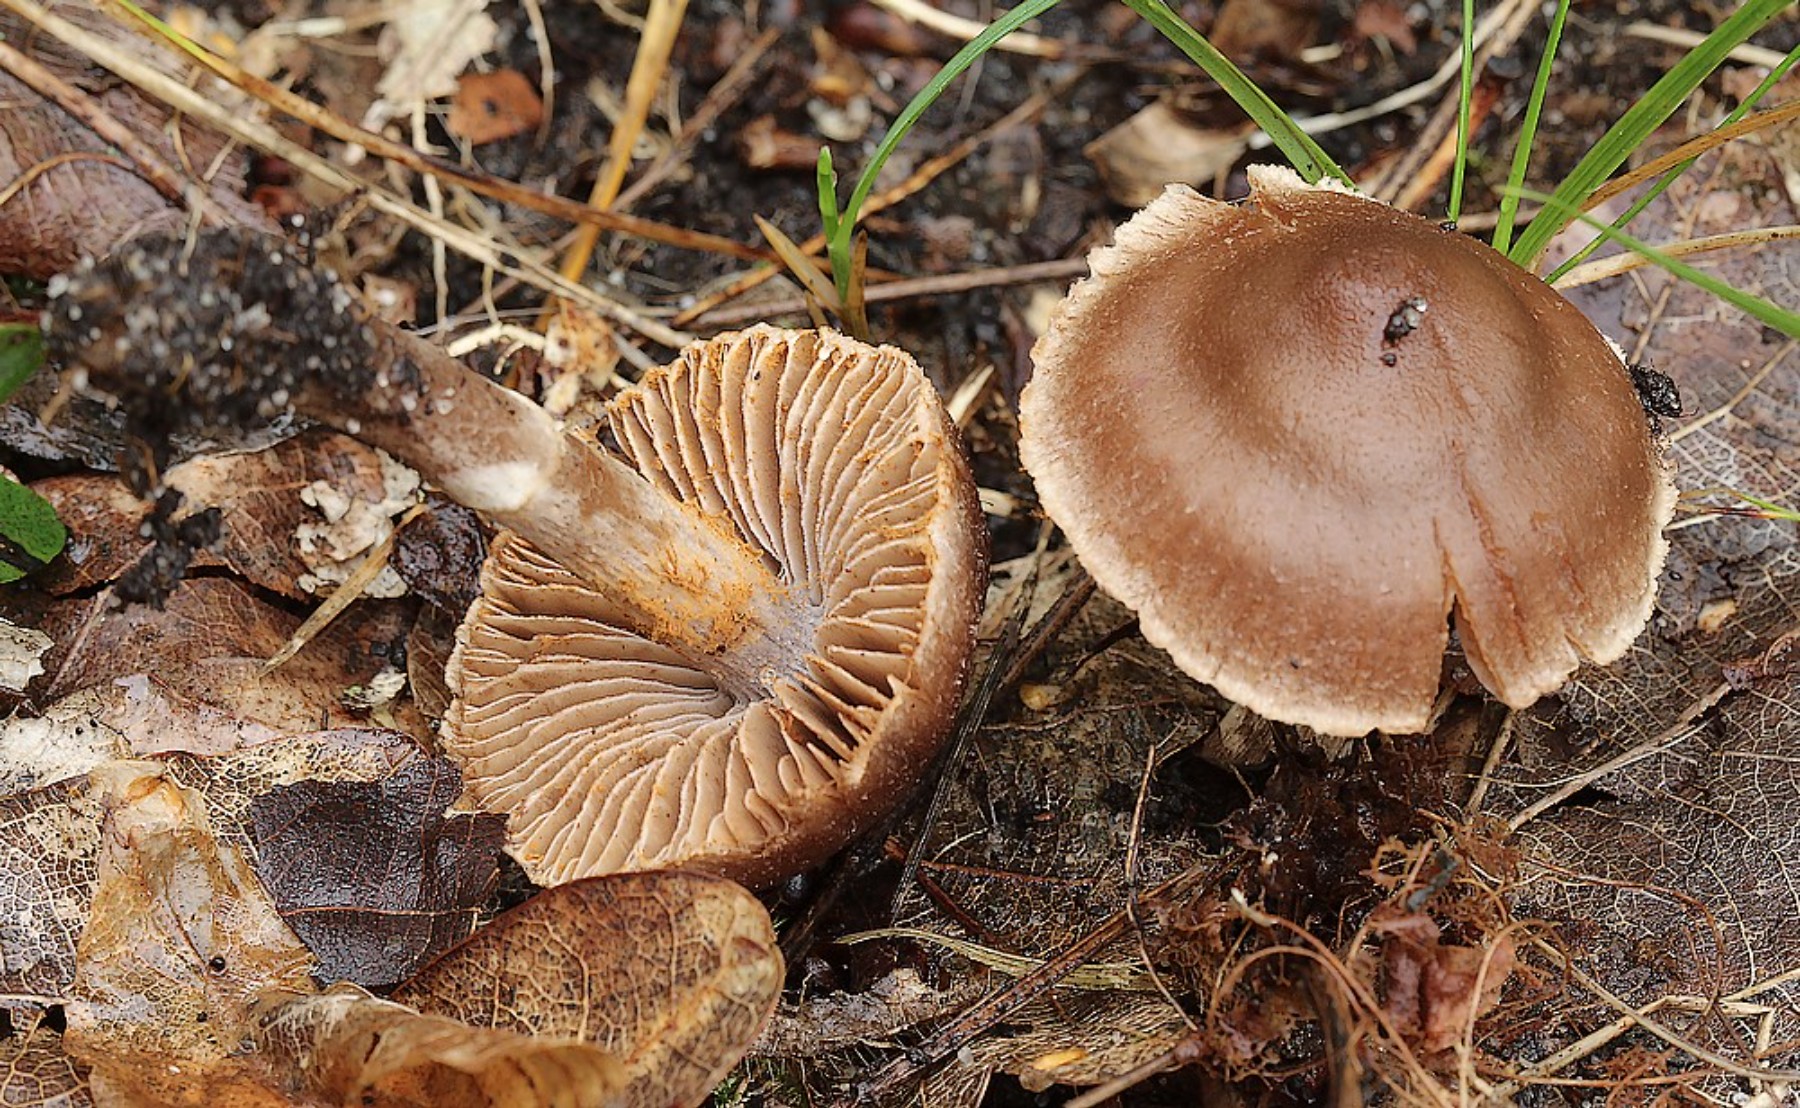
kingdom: Fungi
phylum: Basidiomycota
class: Agaricomycetes
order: Agaricales
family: Cortinariaceae
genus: Cortinarius
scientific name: Cortinarius
